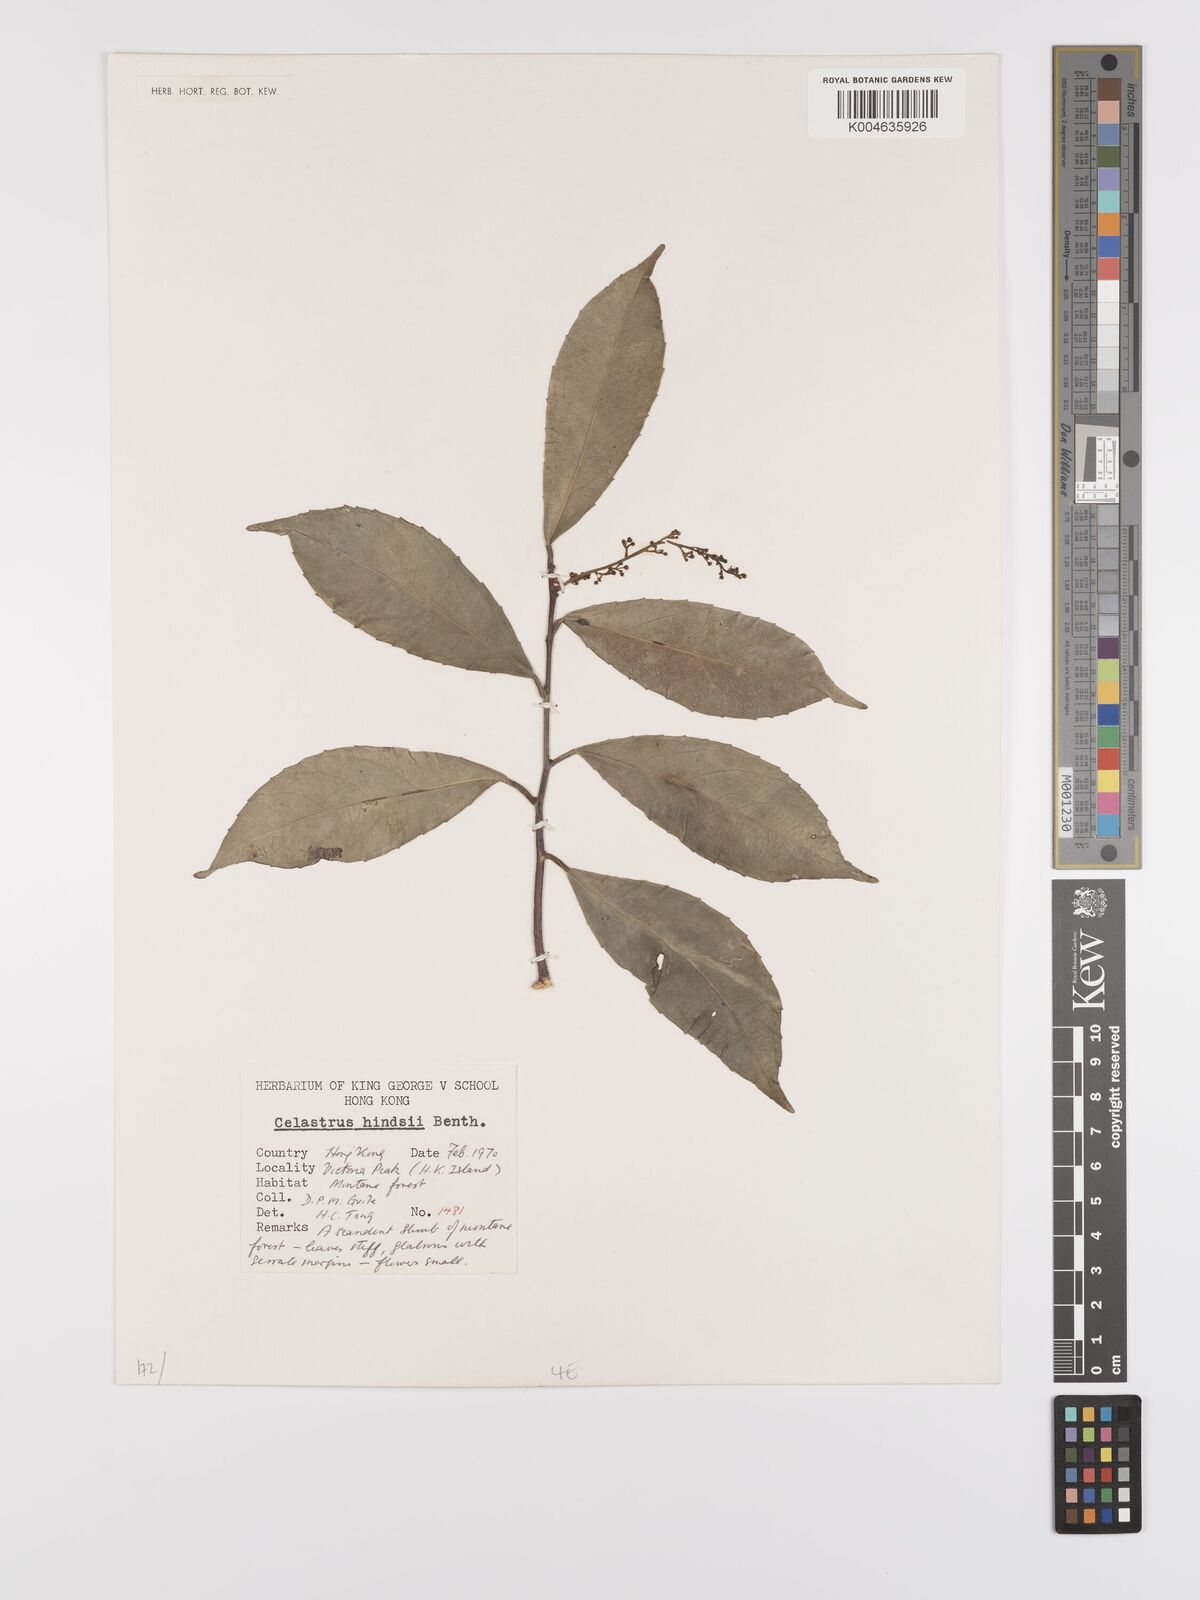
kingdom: Plantae
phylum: Tracheophyta
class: Magnoliopsida
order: Celastrales
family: Celastraceae
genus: Celastrus
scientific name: Celastrus hindsii
